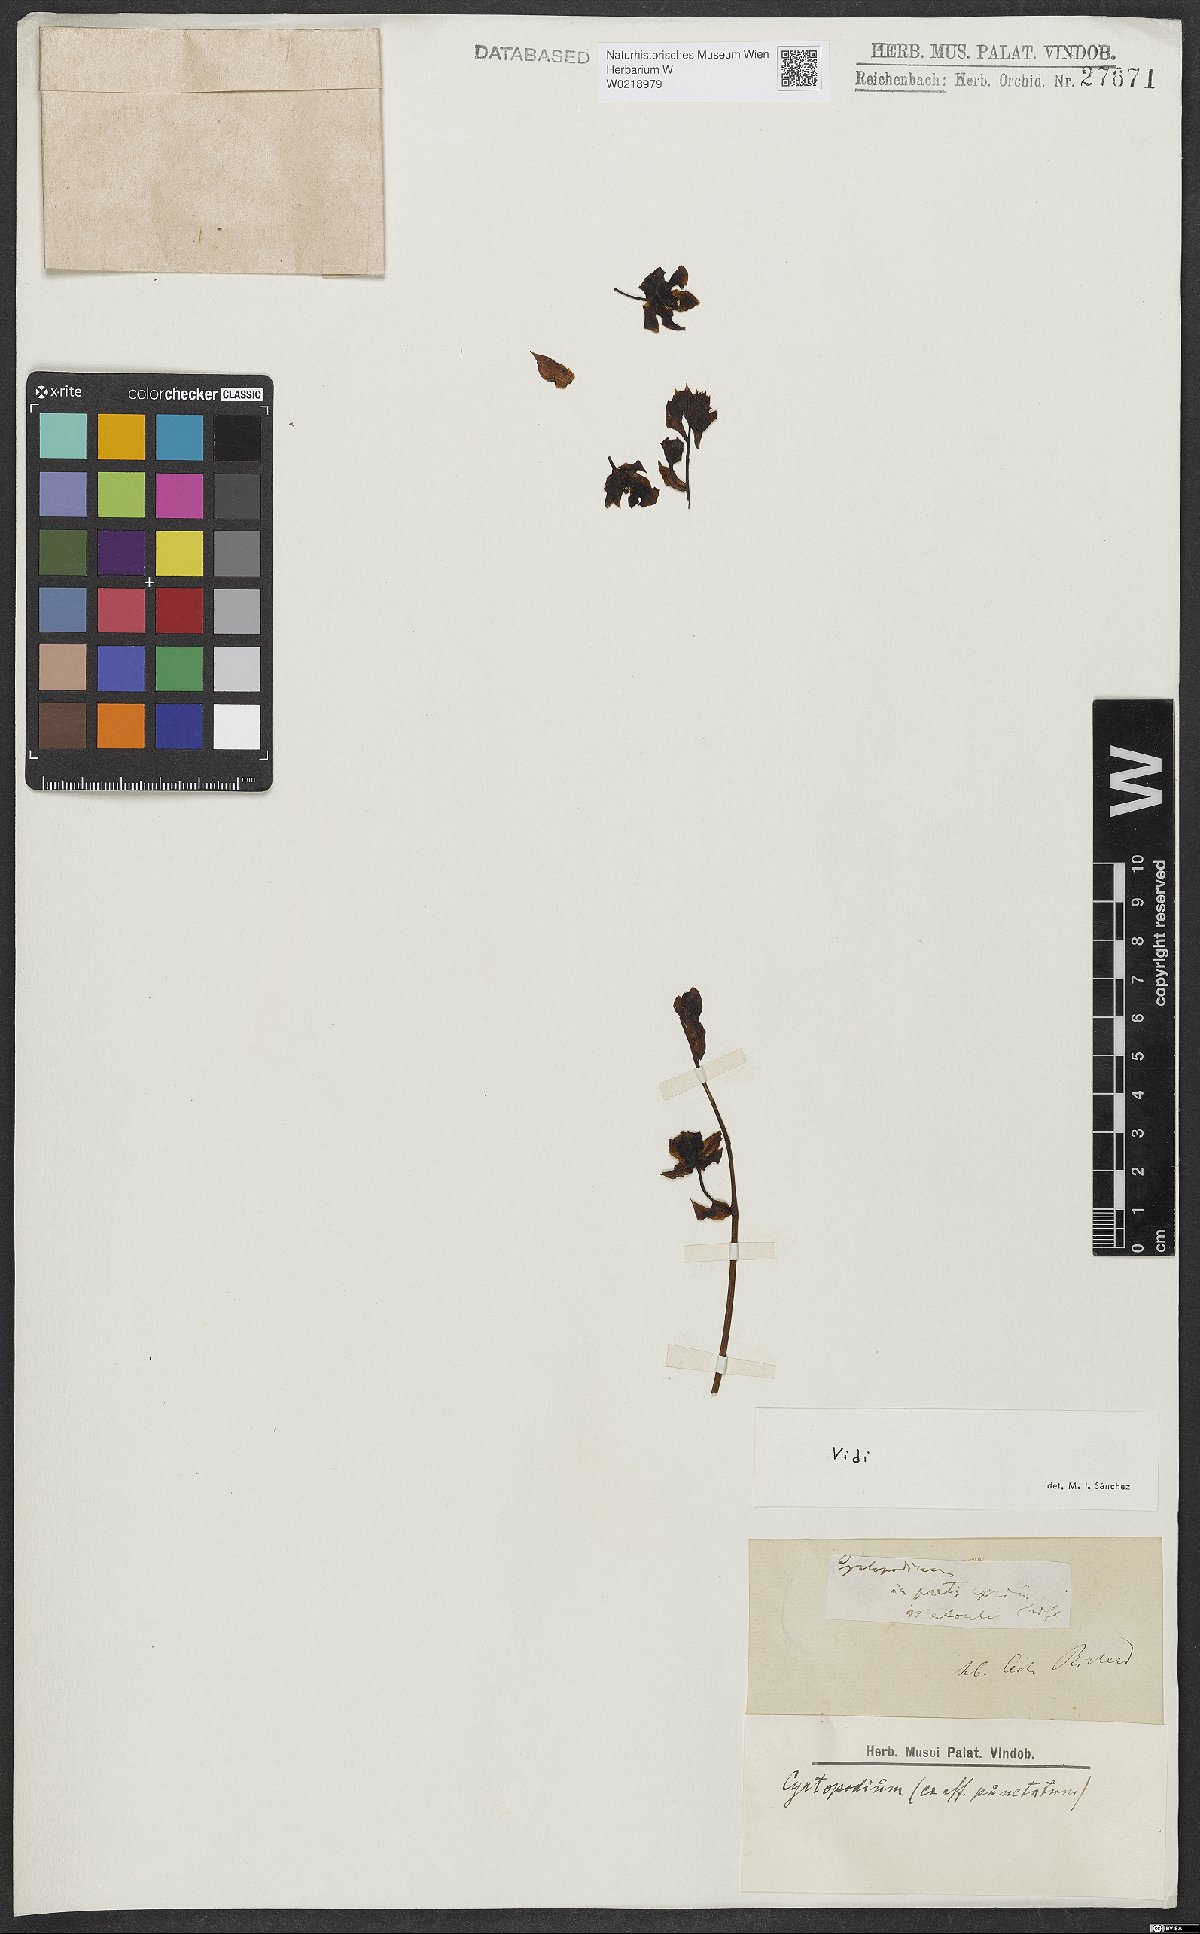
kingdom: Plantae
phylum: Tracheophyta
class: Liliopsida
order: Asparagales
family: Orchidaceae
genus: Cyrtopodium
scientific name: Cyrtopodium parviflorum
